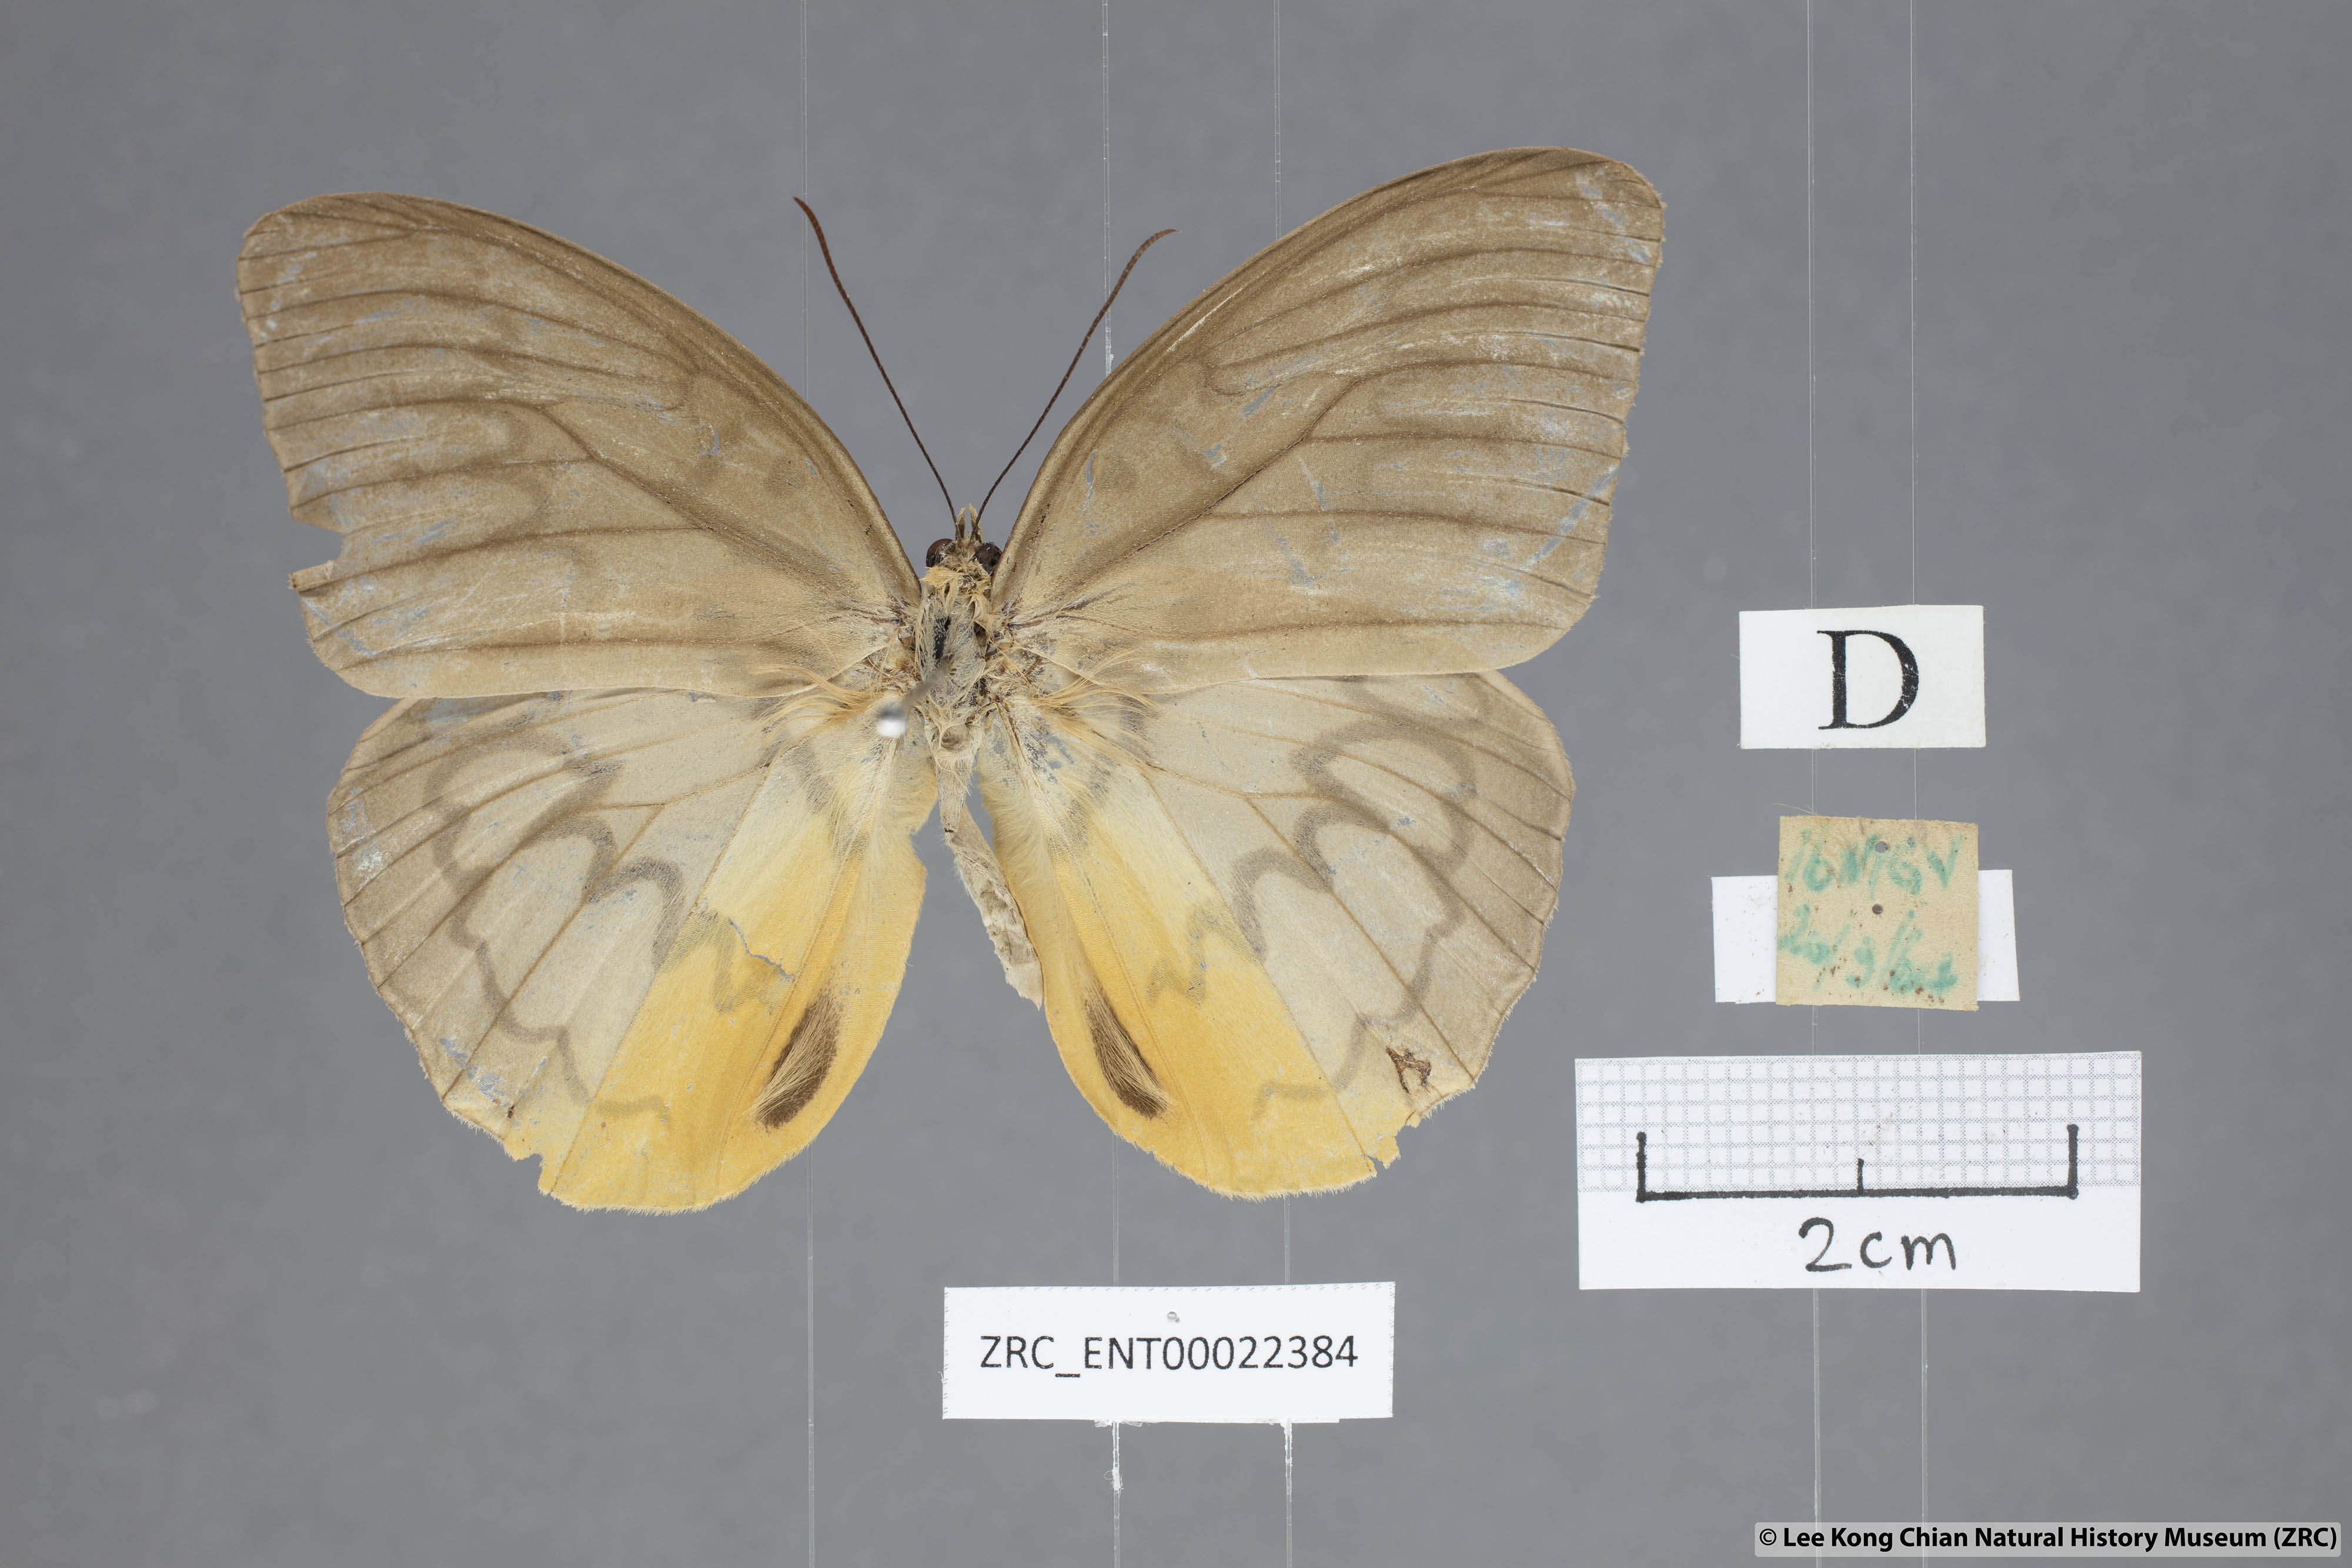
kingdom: Animalia
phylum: Arthropoda
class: Insecta
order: Lepidoptera
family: Nymphalidae
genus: Faunis
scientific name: Faunis Melanocyma faunula
